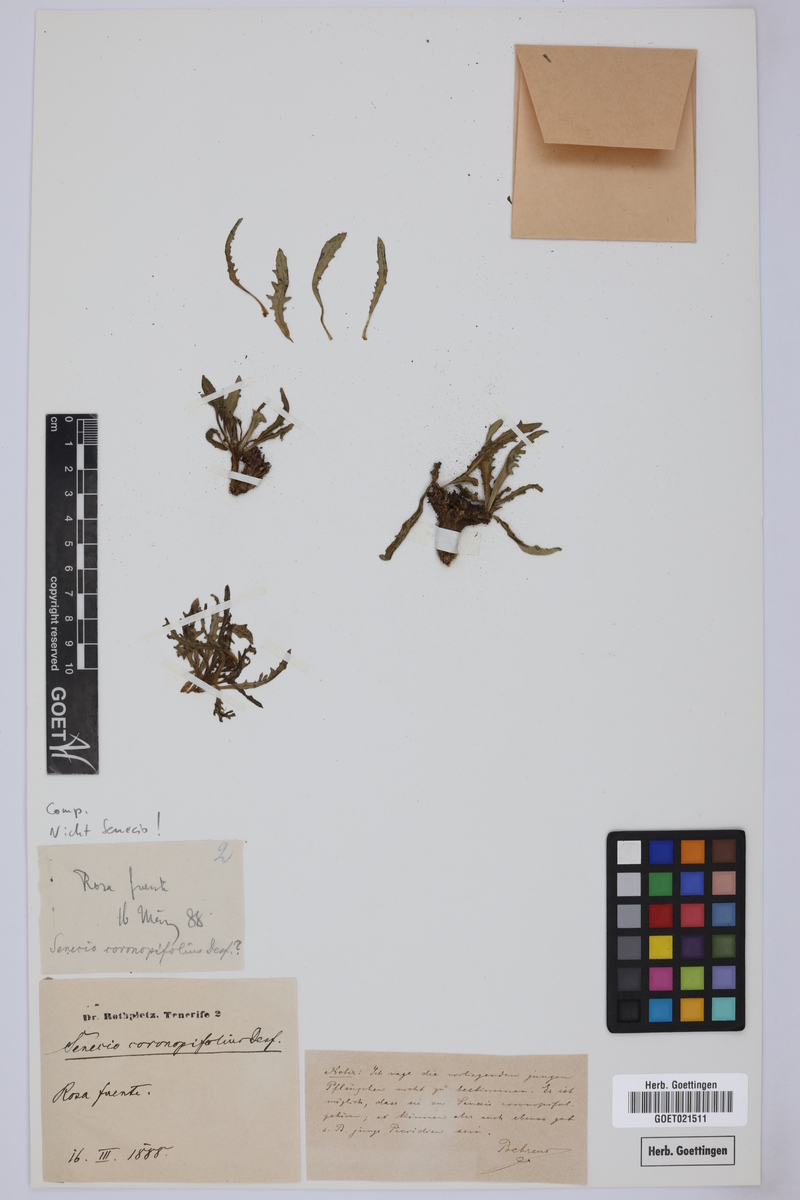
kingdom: Plantae
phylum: Tracheophyta
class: Magnoliopsida
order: Asterales
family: Asteraceae
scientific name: Asteraceae
